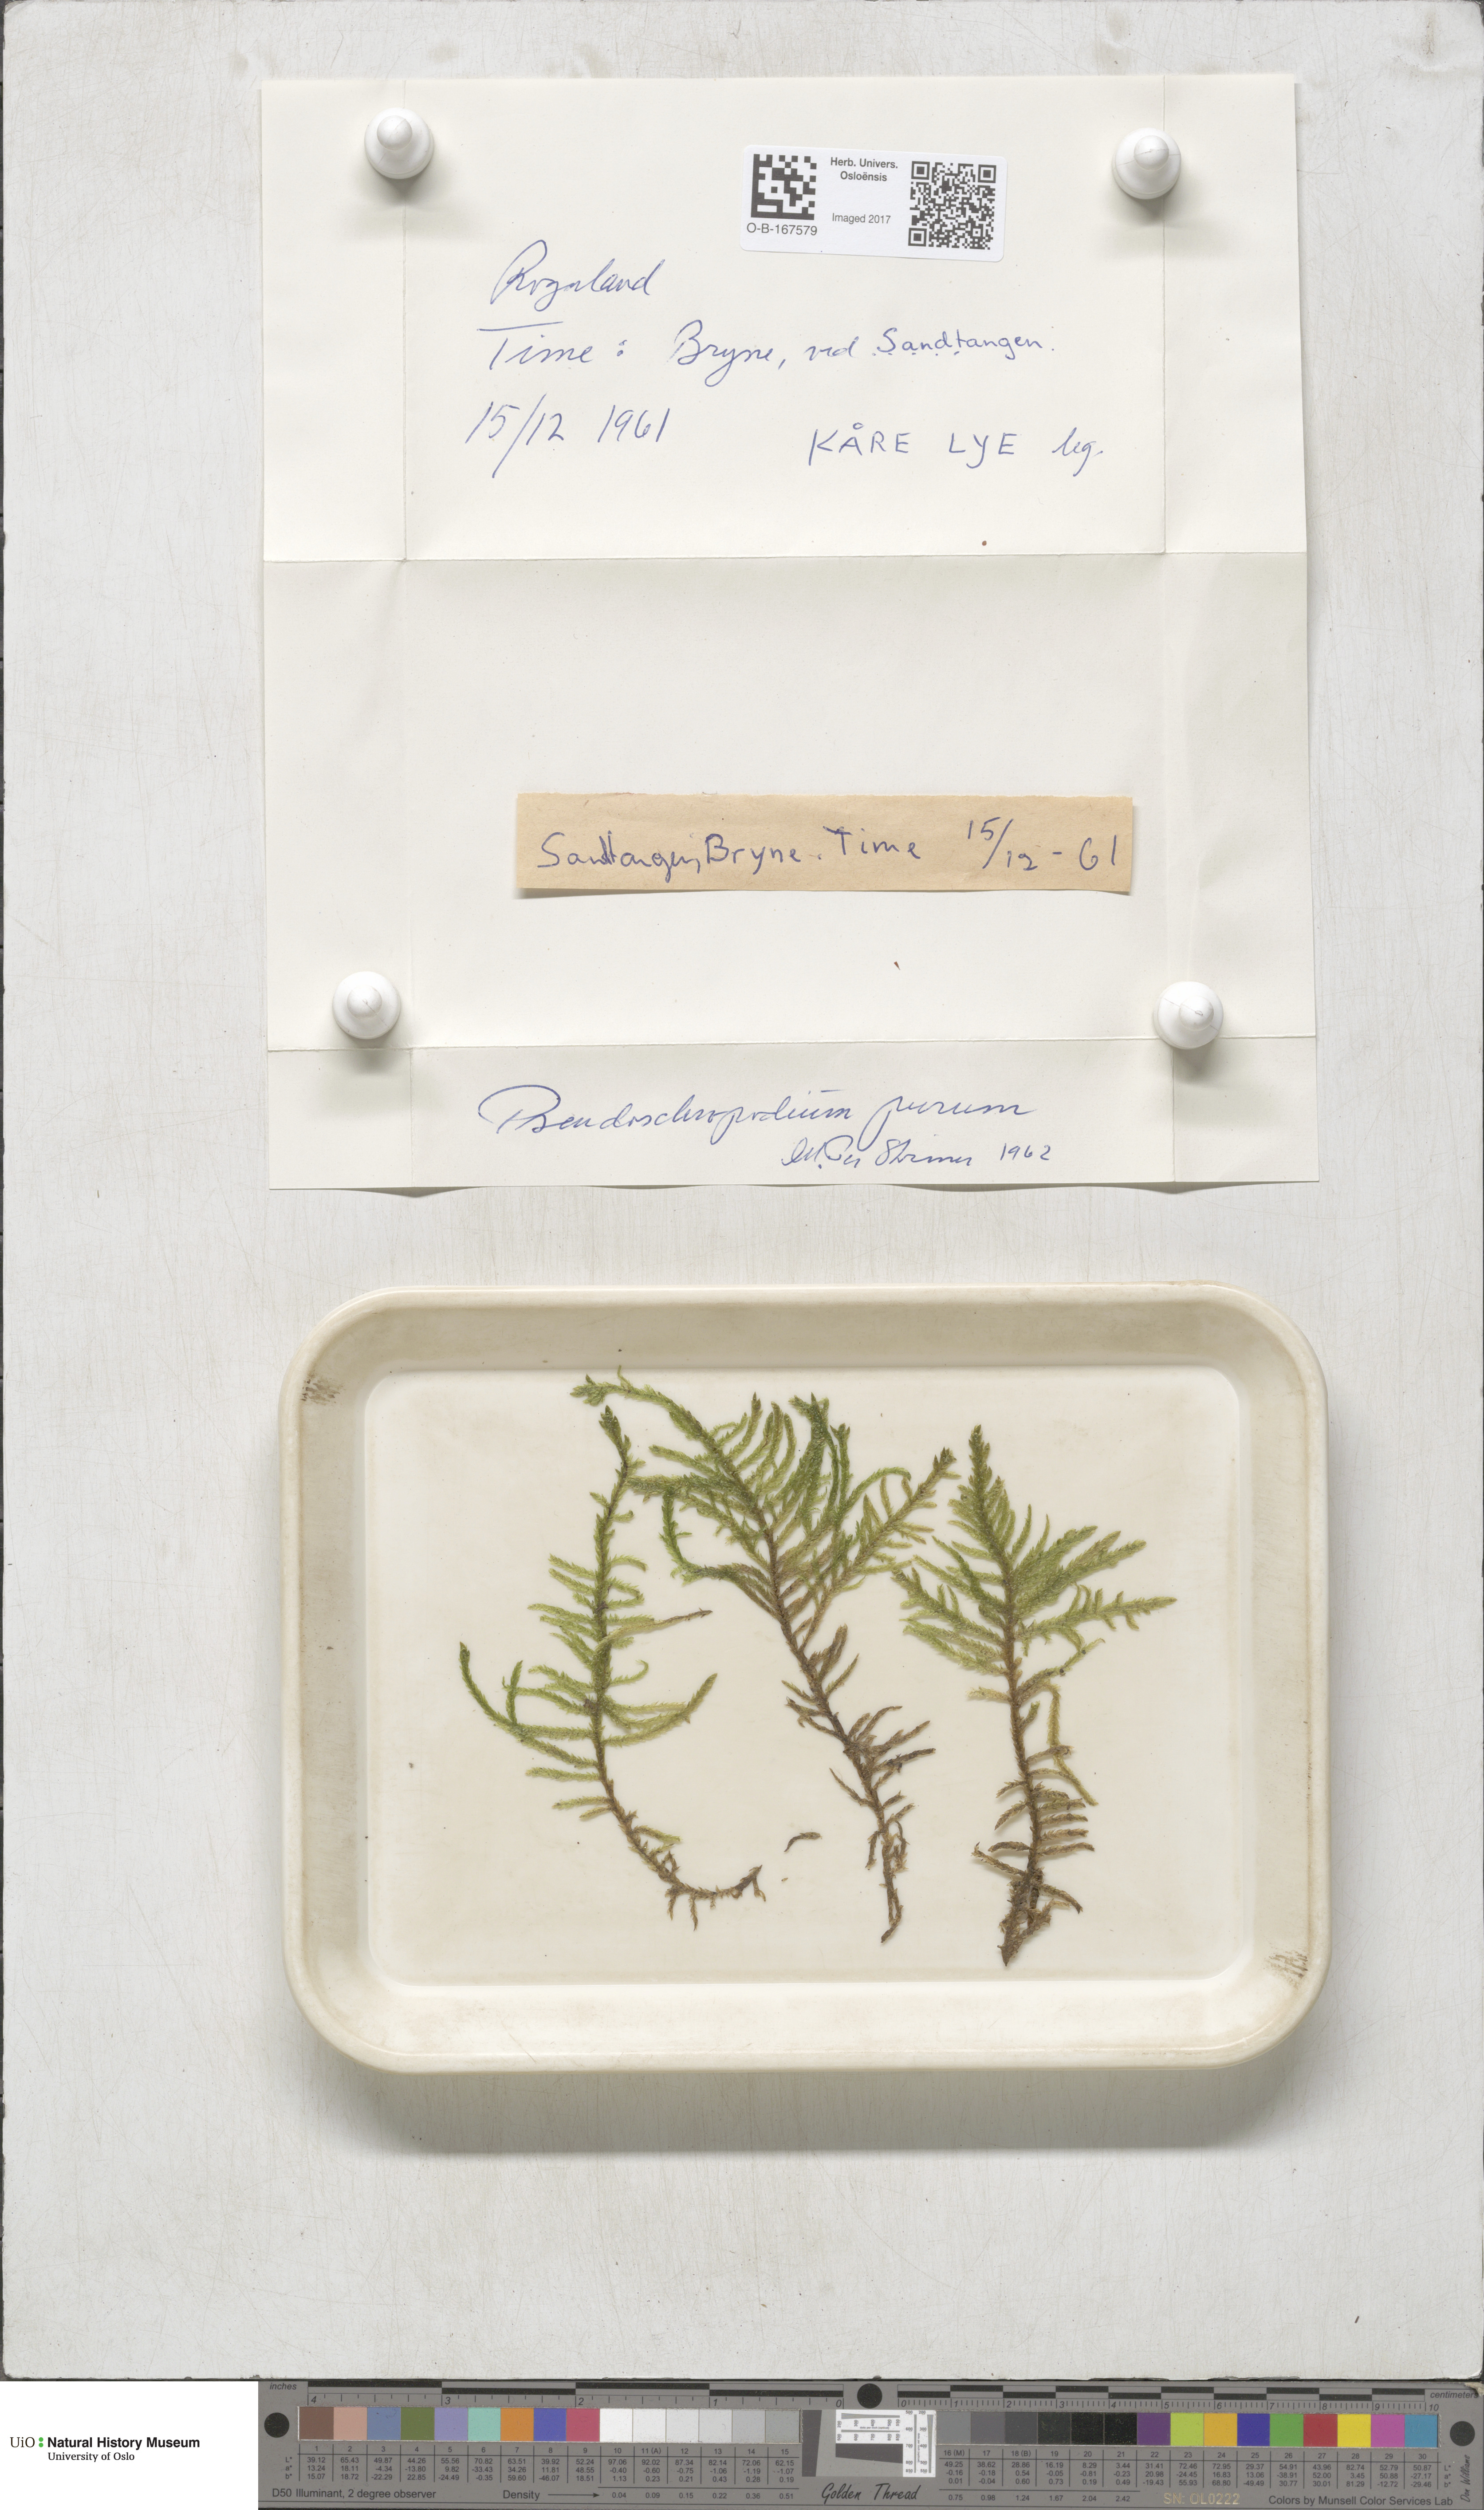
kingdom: Plantae
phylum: Bryophyta
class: Bryopsida
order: Hypnales
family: Brachytheciaceae
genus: Pseudoscleropodium
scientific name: Pseudoscleropodium purum
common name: Neat feather-moss
